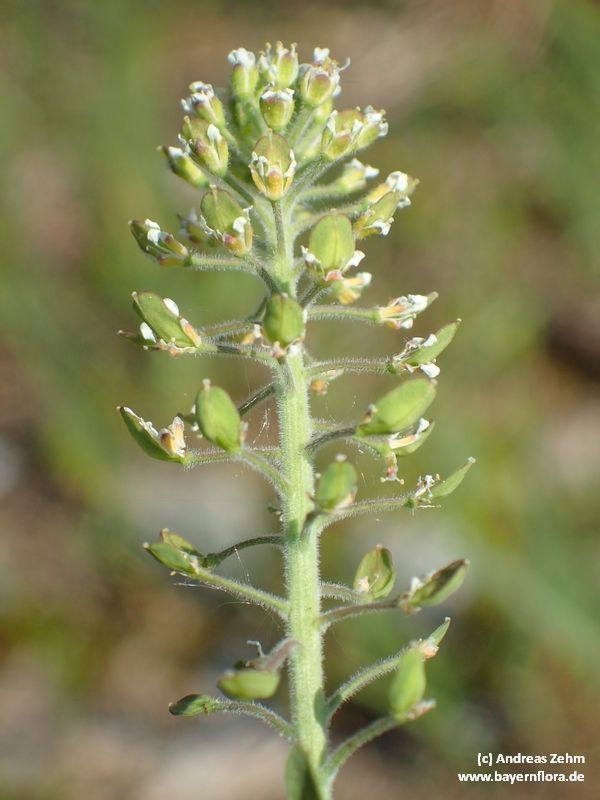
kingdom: Plantae
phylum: Tracheophyta
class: Magnoliopsida
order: Brassicales
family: Brassicaceae
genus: Lepidium
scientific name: Lepidium campestre
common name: Field pepperwort
